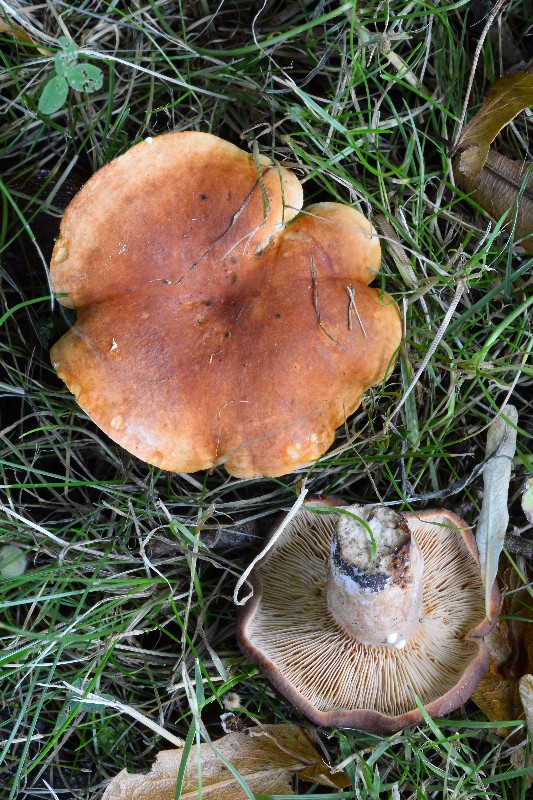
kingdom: Fungi
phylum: Basidiomycota
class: Agaricomycetes
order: Russulales
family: Russulaceae
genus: Lactarius
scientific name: Lactarius fulvissimus
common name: ræve-mælkehat
